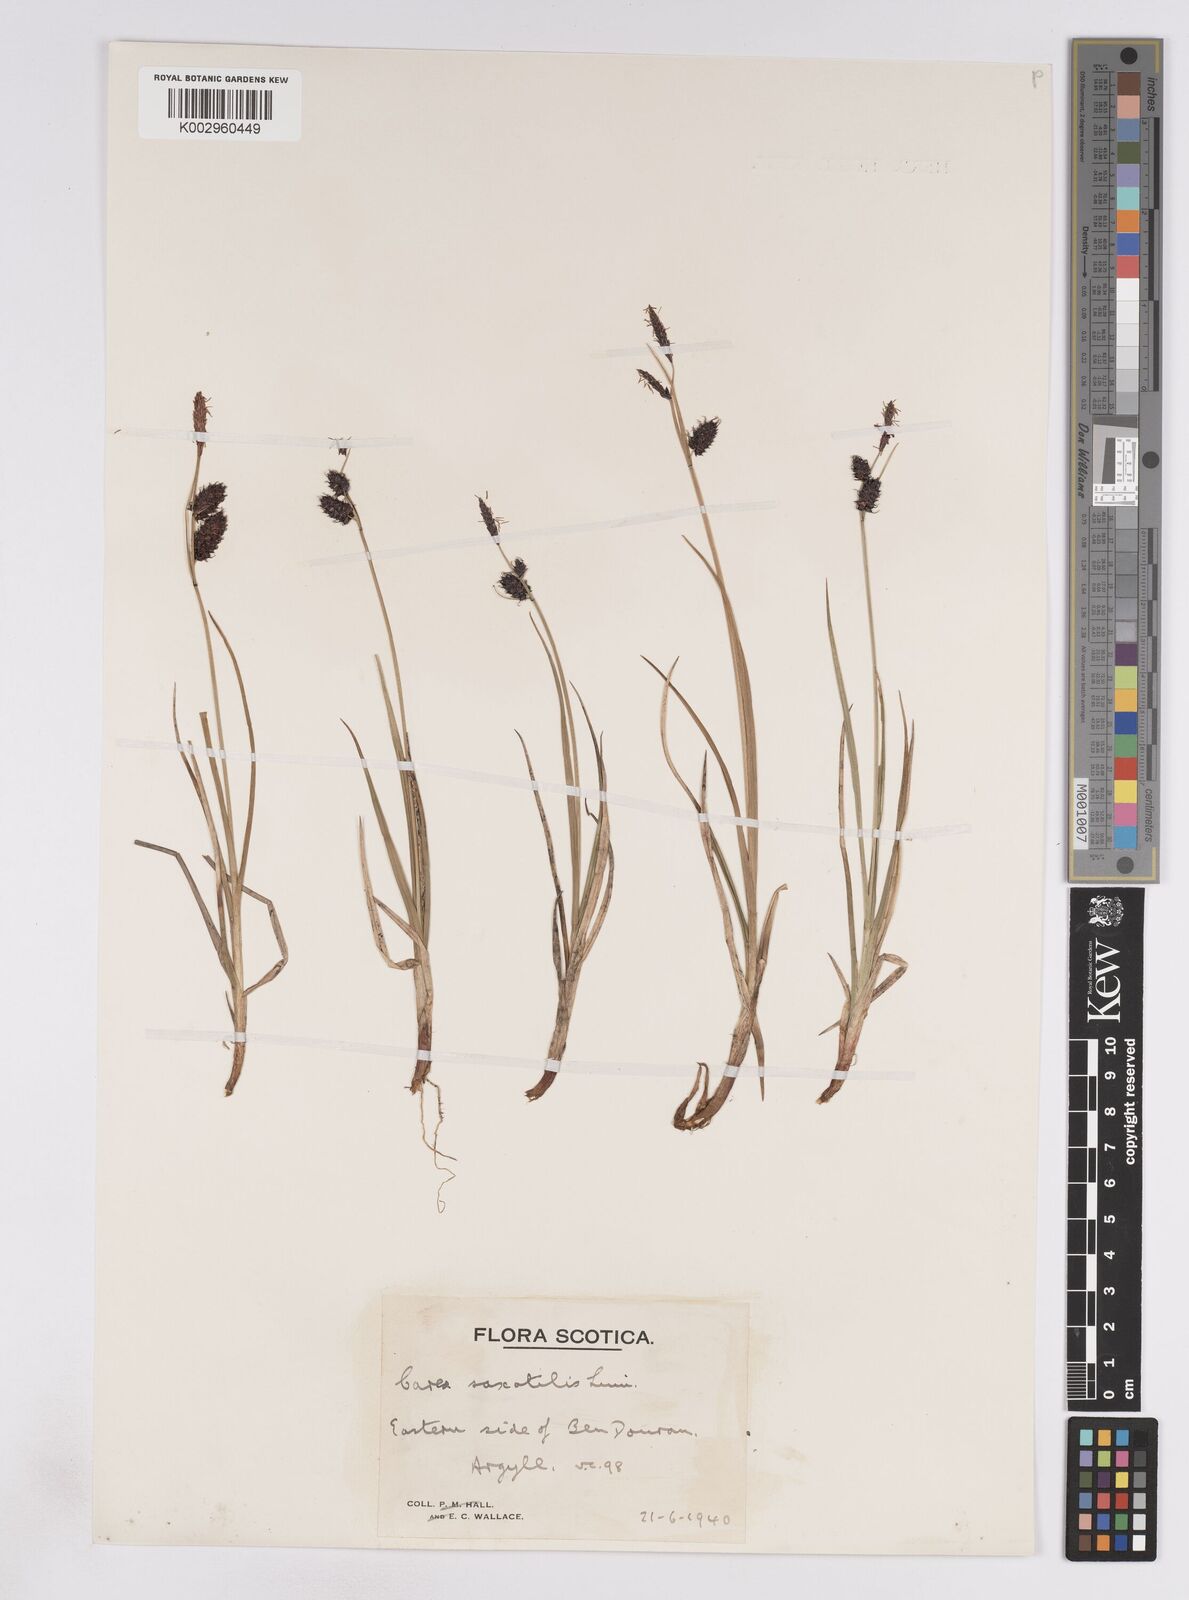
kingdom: Plantae
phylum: Tracheophyta
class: Liliopsida
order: Poales
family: Cyperaceae
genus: Carex
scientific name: Carex saxatilis
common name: Russet sedge
